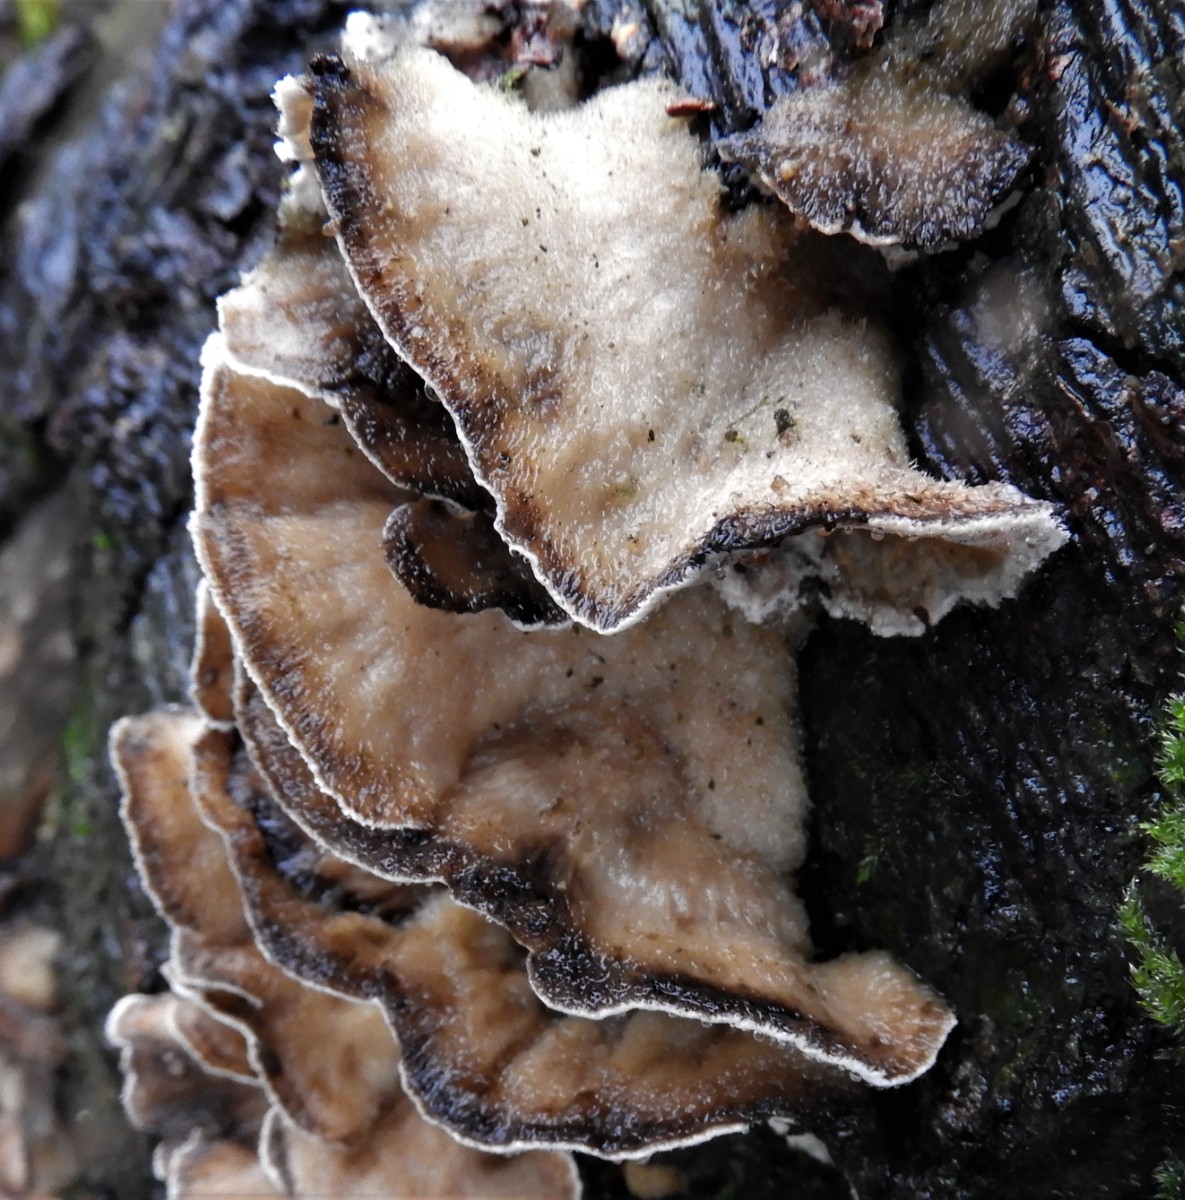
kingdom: Fungi
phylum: Basidiomycota
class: Agaricomycetes
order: Polyporales
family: Phanerochaetaceae
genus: Bjerkandera
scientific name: Bjerkandera adusta
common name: sveden sodporesvamp
